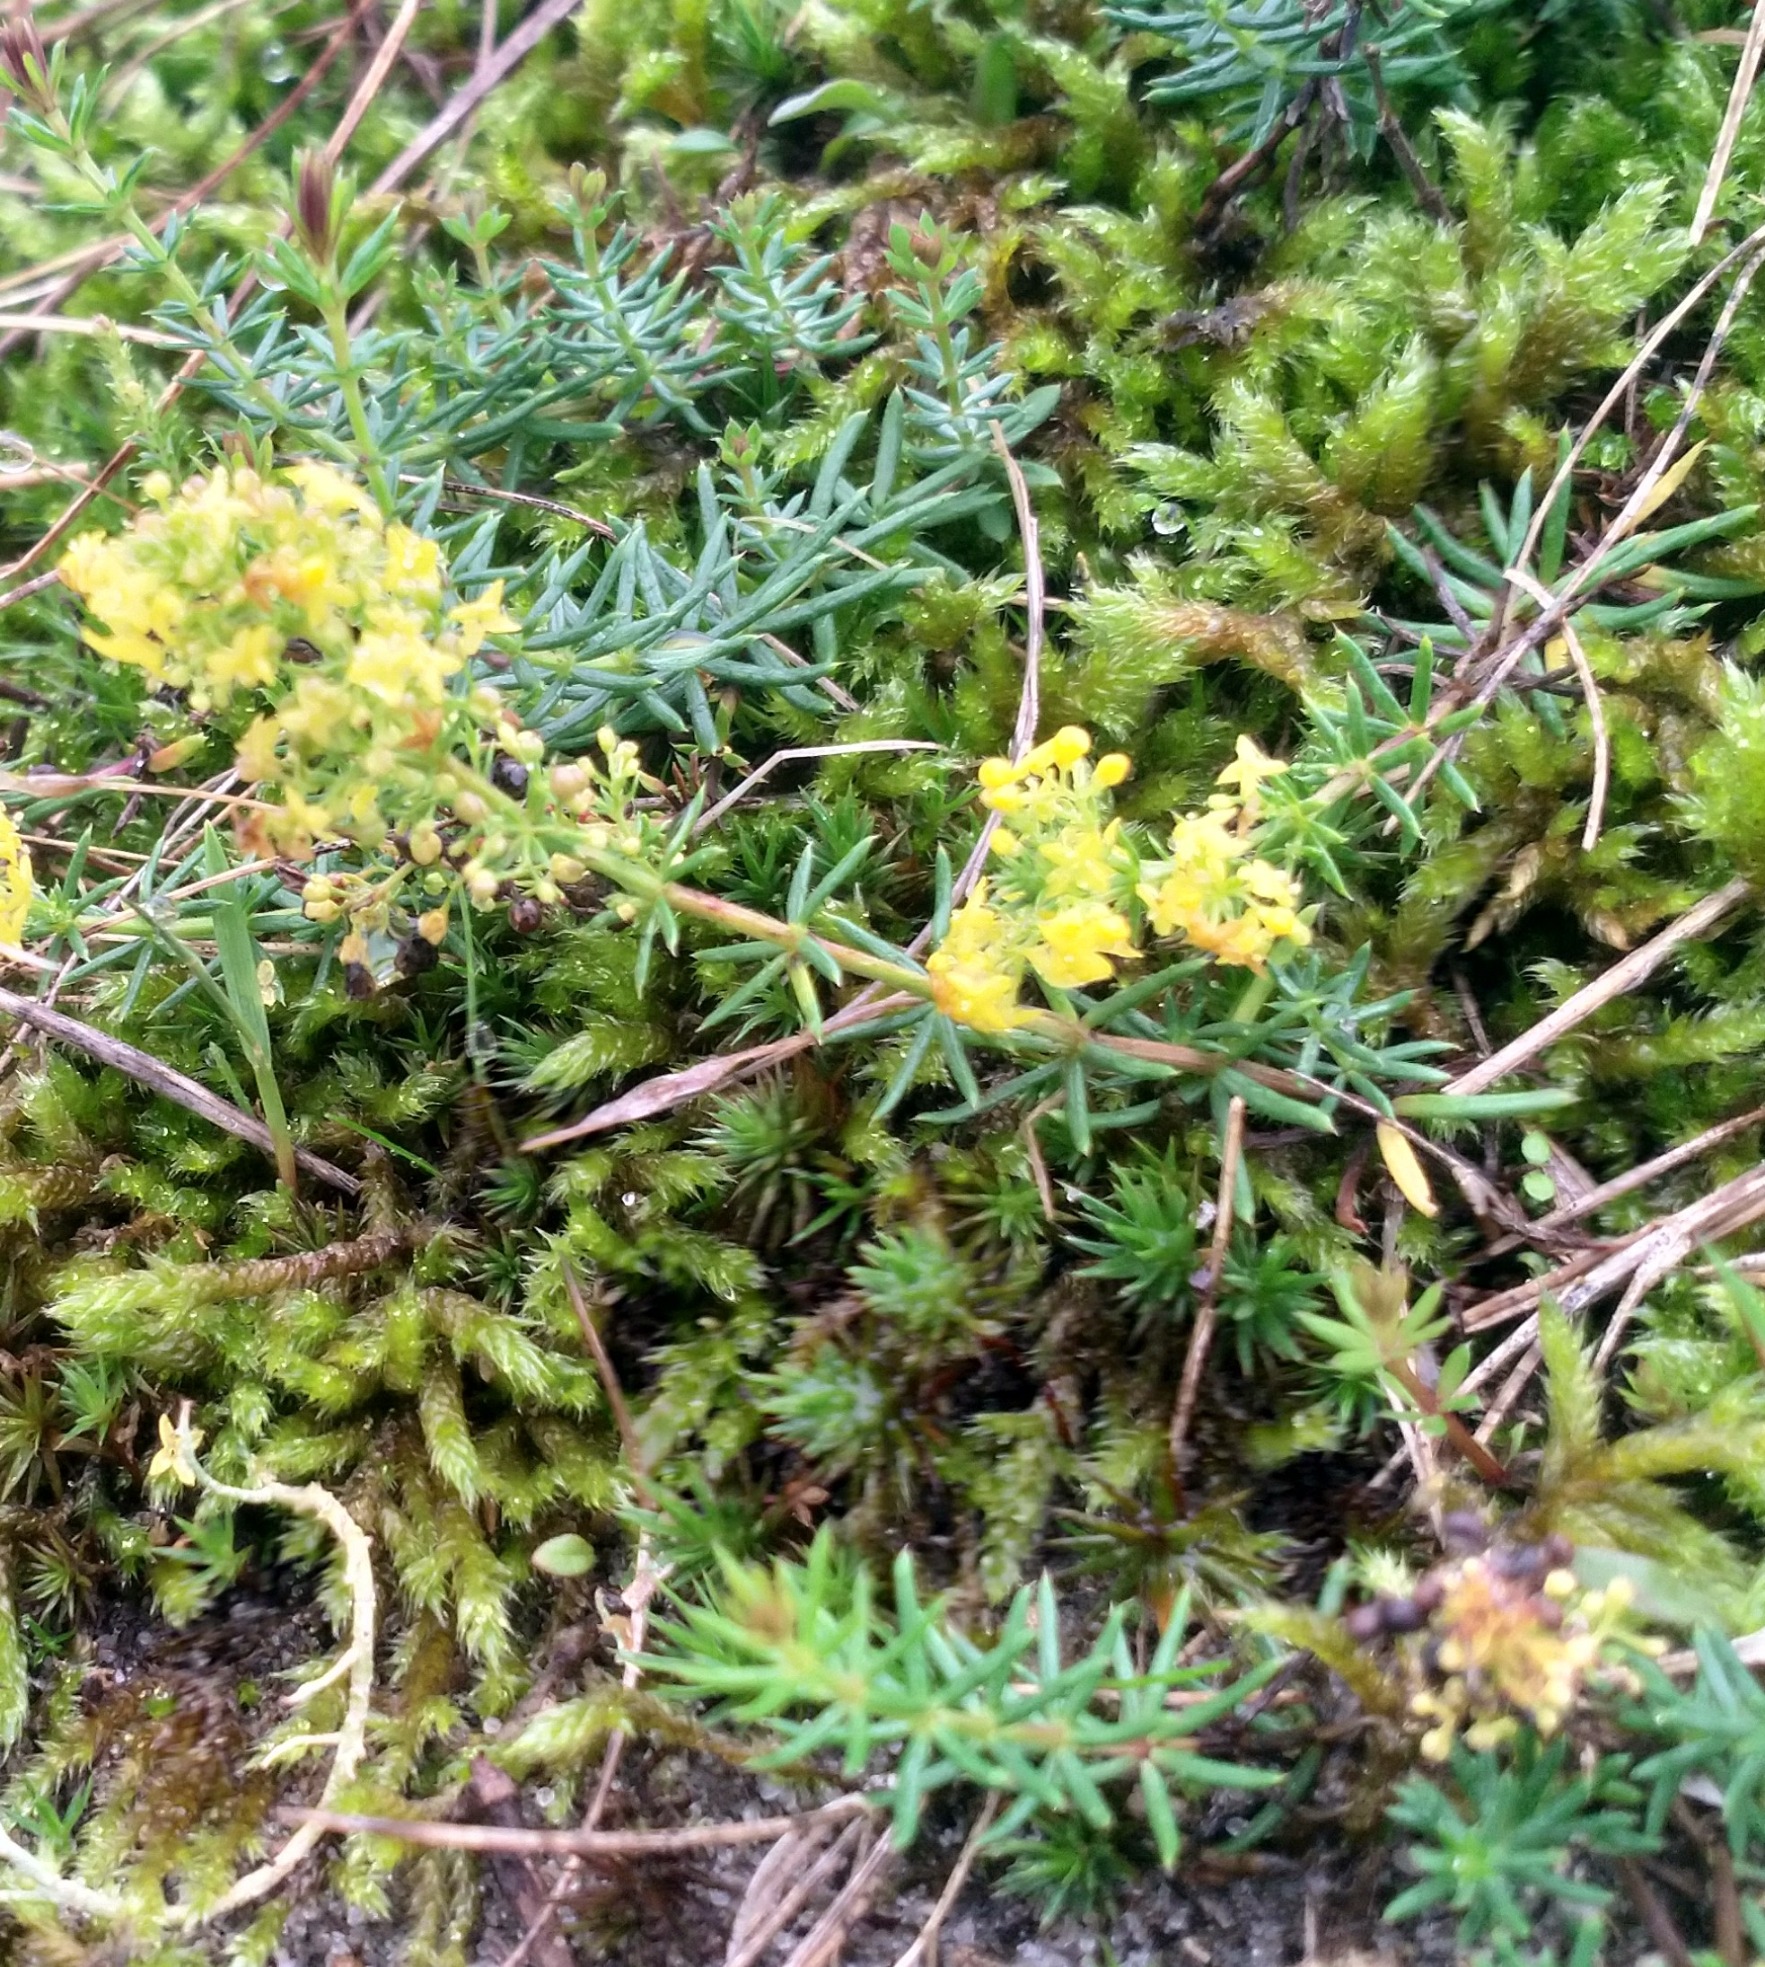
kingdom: Plantae
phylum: Tracheophyta
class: Magnoliopsida
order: Gentianales
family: Rubiaceae
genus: Galium
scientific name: Galium verum
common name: Gul snerre
